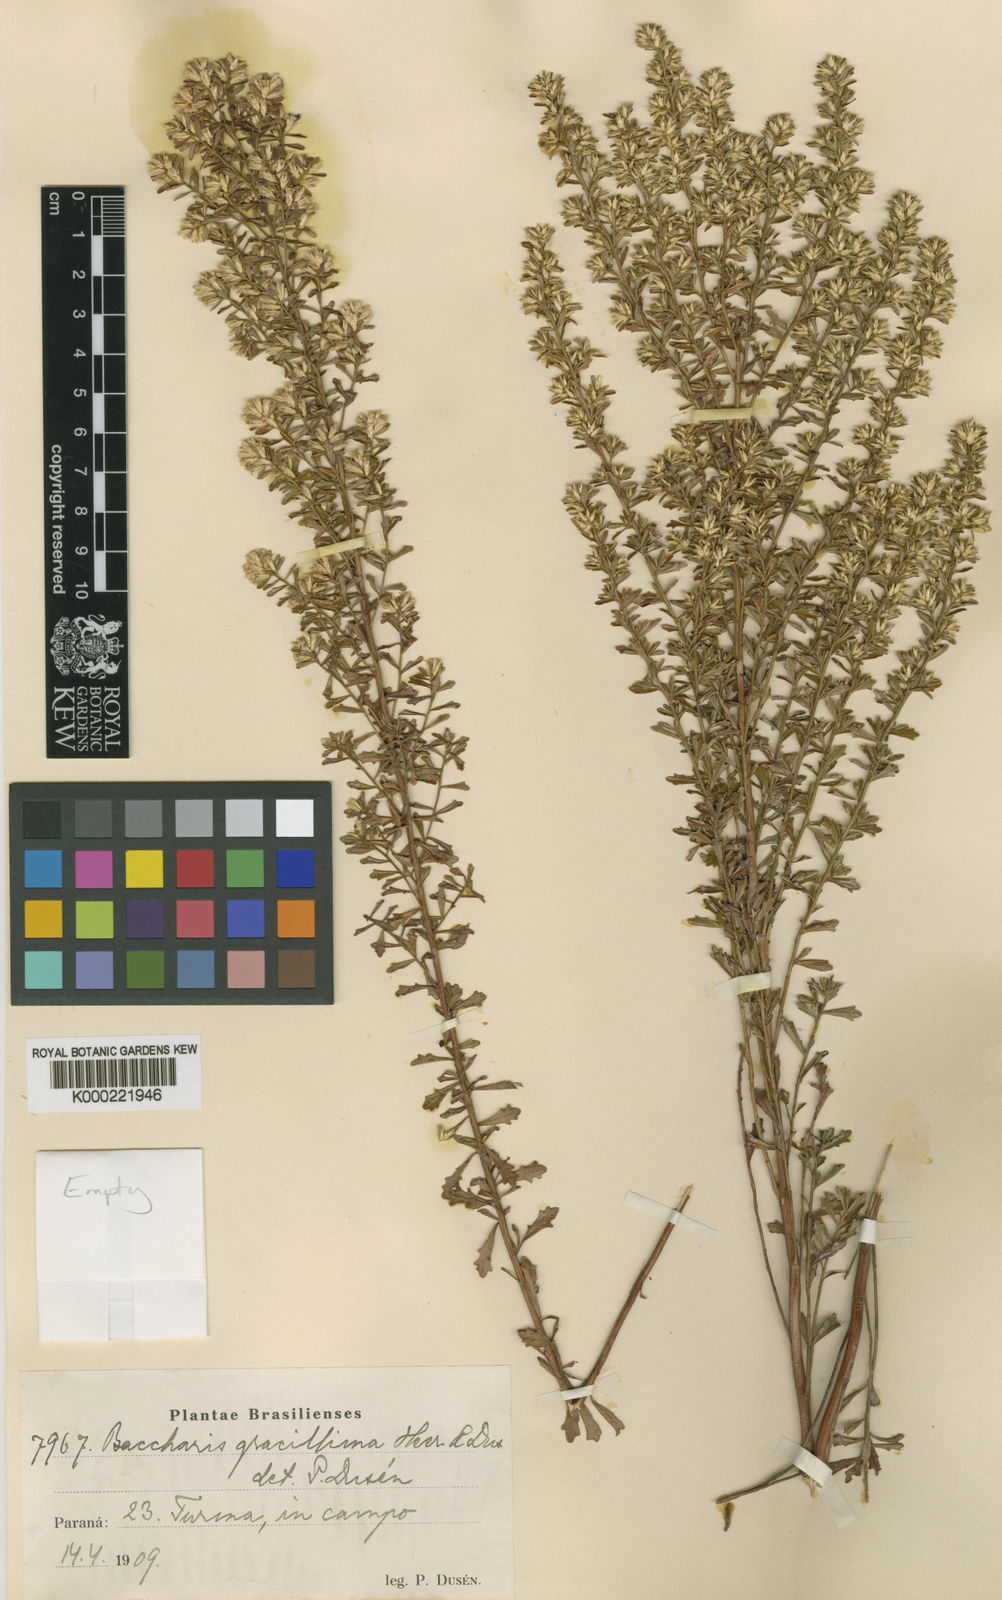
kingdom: Plantae
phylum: Tracheophyta
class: Magnoliopsida
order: Asterales
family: Asteraceae
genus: Baccharis
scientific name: Baccharis
